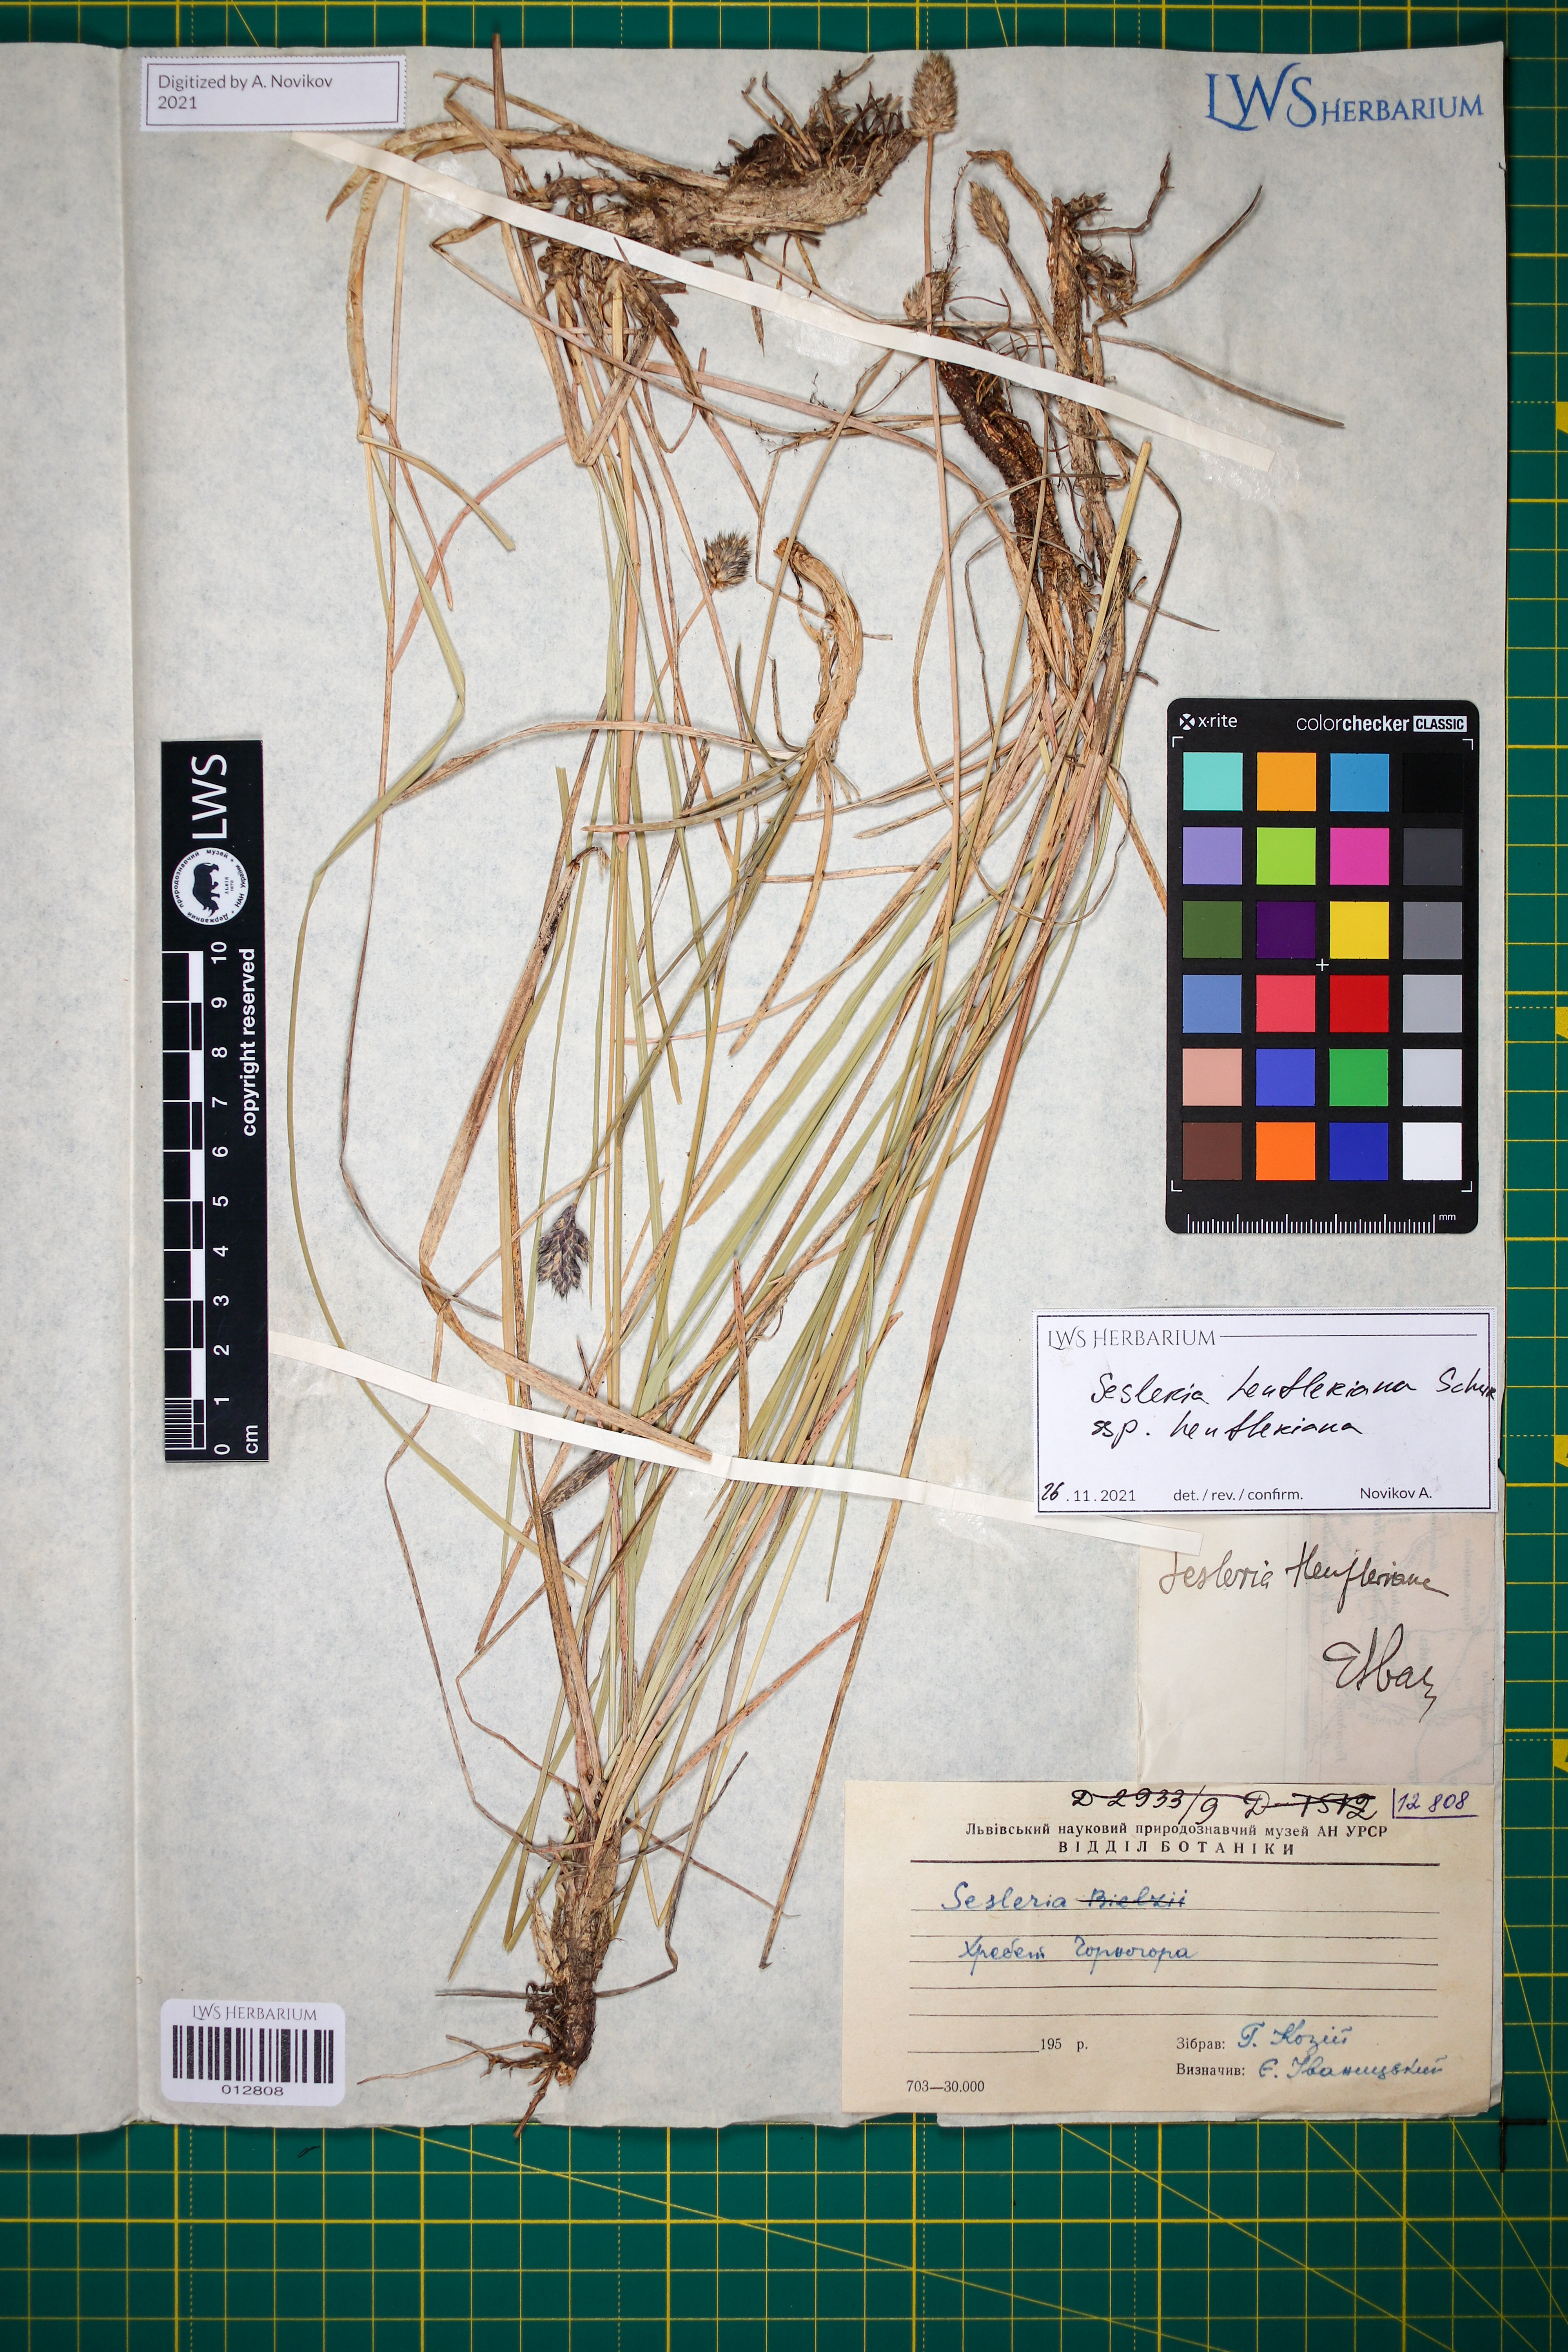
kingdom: Plantae
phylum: Tracheophyta
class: Liliopsida
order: Poales
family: Poaceae
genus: Sesleria
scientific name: Sesleria heufleriana
